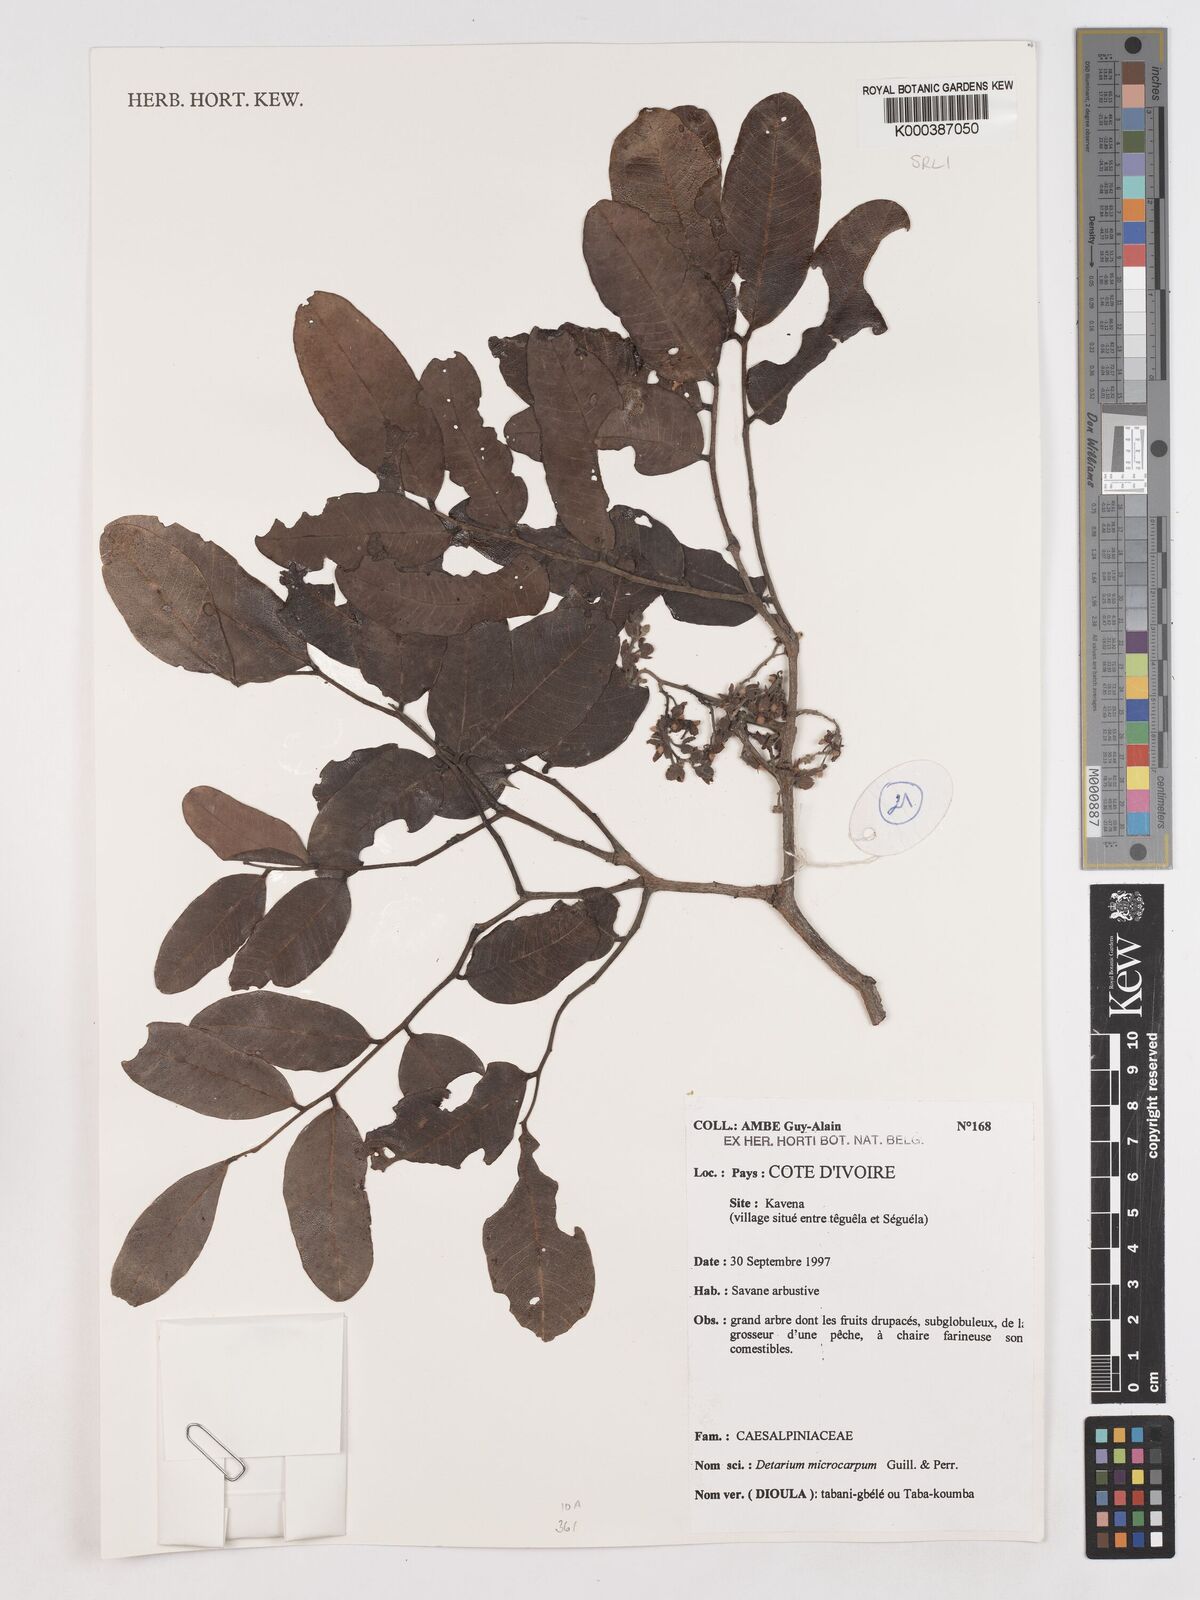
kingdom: Plantae
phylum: Tracheophyta
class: Magnoliopsida
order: Fabales
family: Fabaceae
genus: Detarium
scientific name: Detarium microcarpum
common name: Sweet dattock
